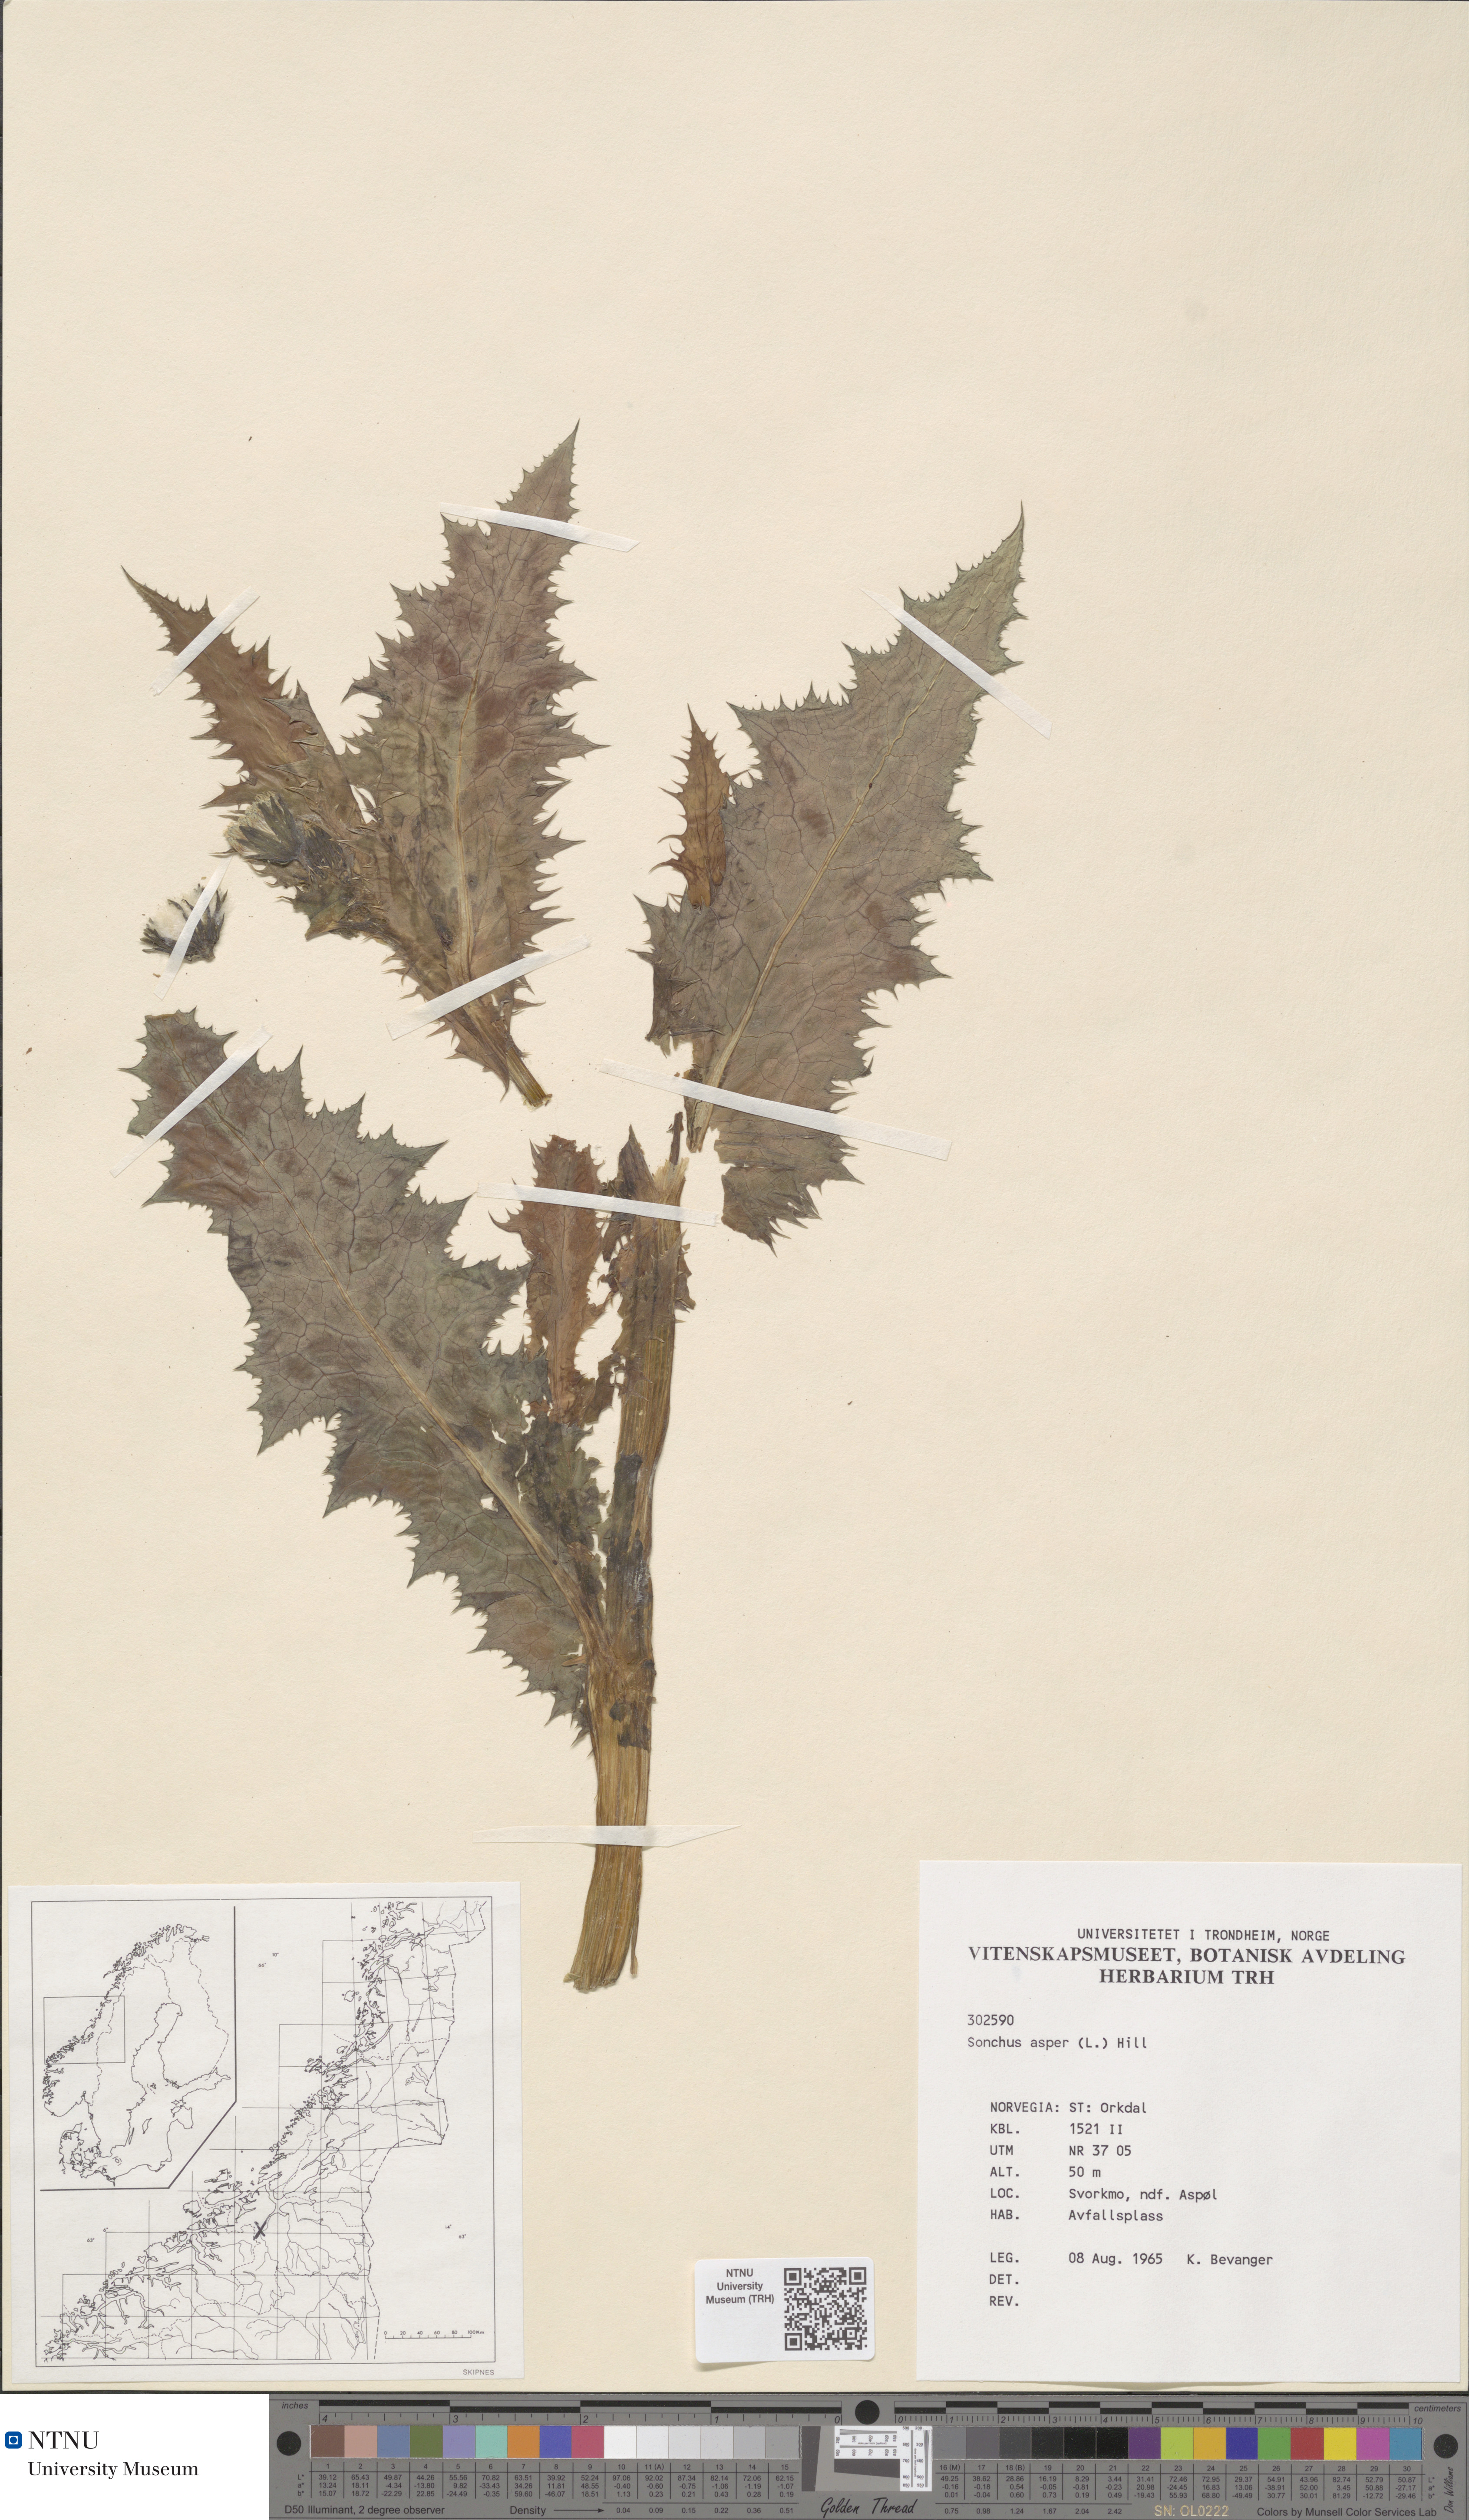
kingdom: Plantae
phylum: Tracheophyta
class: Magnoliopsida
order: Asterales
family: Asteraceae
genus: Sonchus
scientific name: Sonchus asper
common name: Prickly sow-thistle
